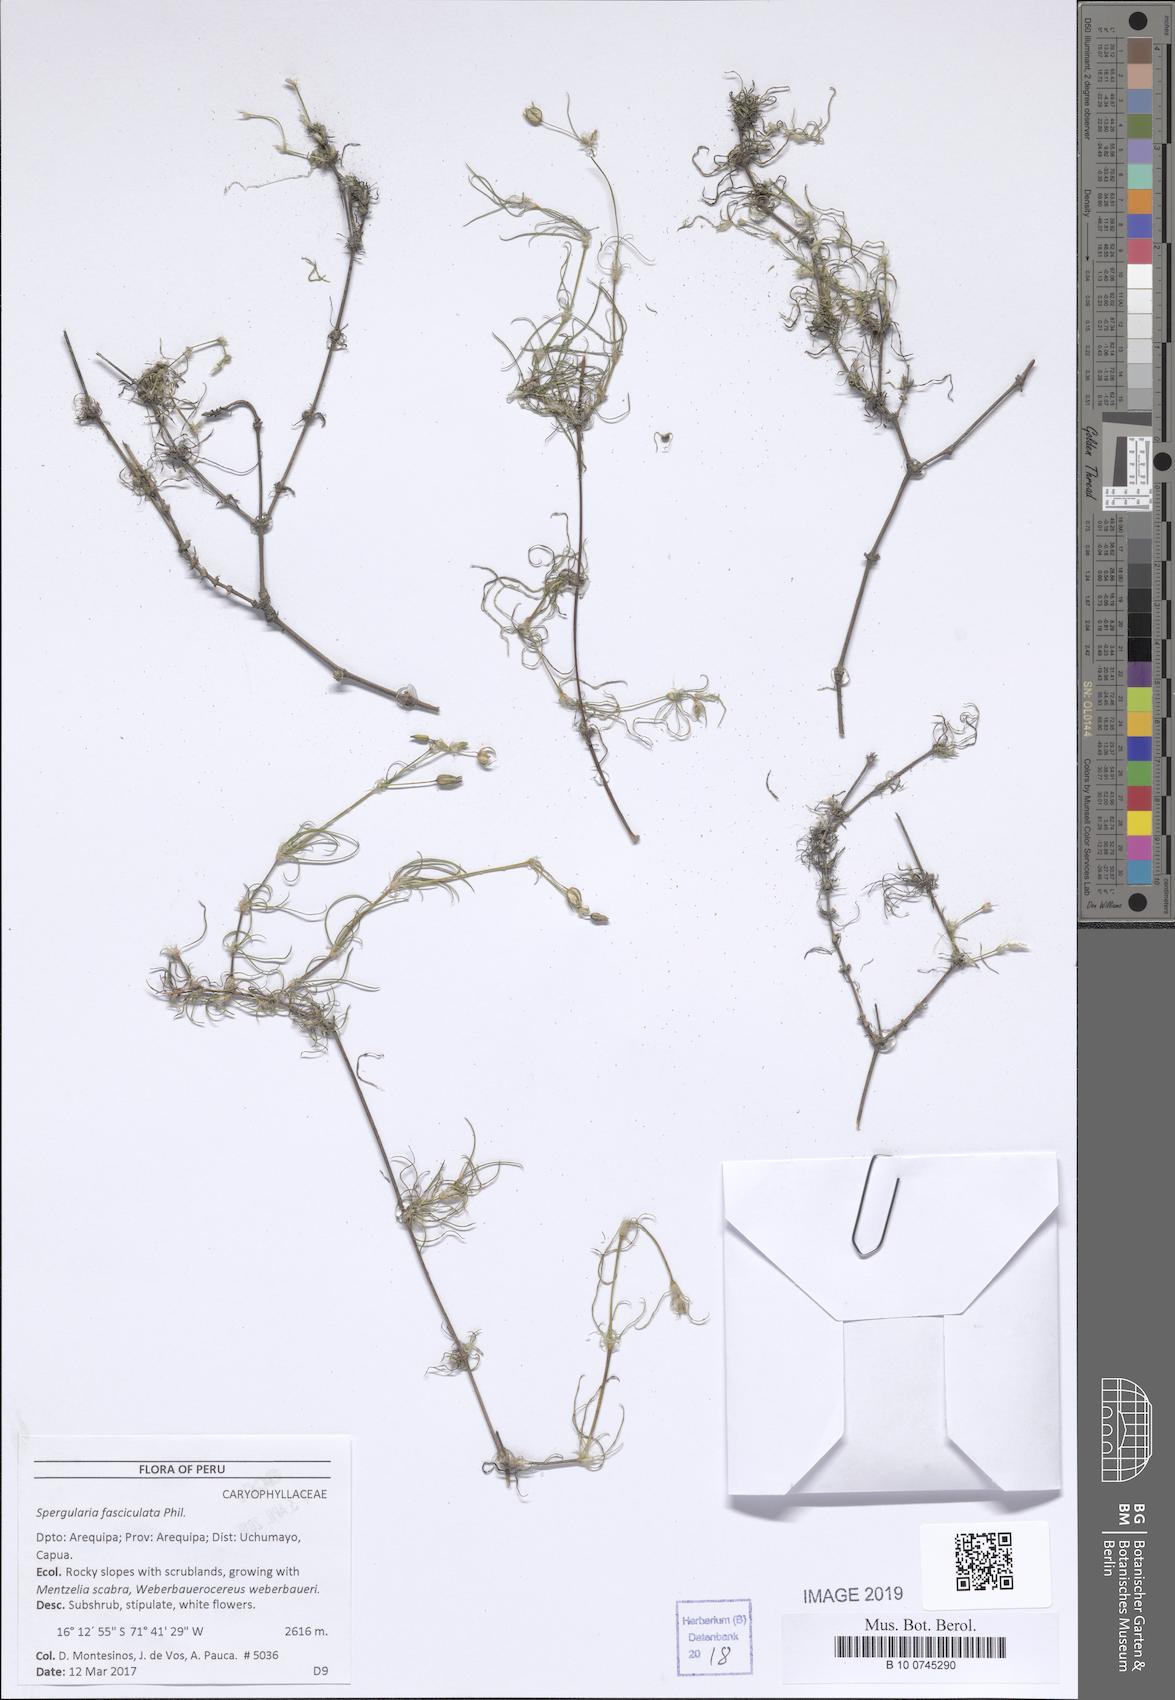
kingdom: Plantae
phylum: Tracheophyta
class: Magnoliopsida
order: Caryophyllales
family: Caryophyllaceae
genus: Spergularia
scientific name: Spergularia fasciculata
